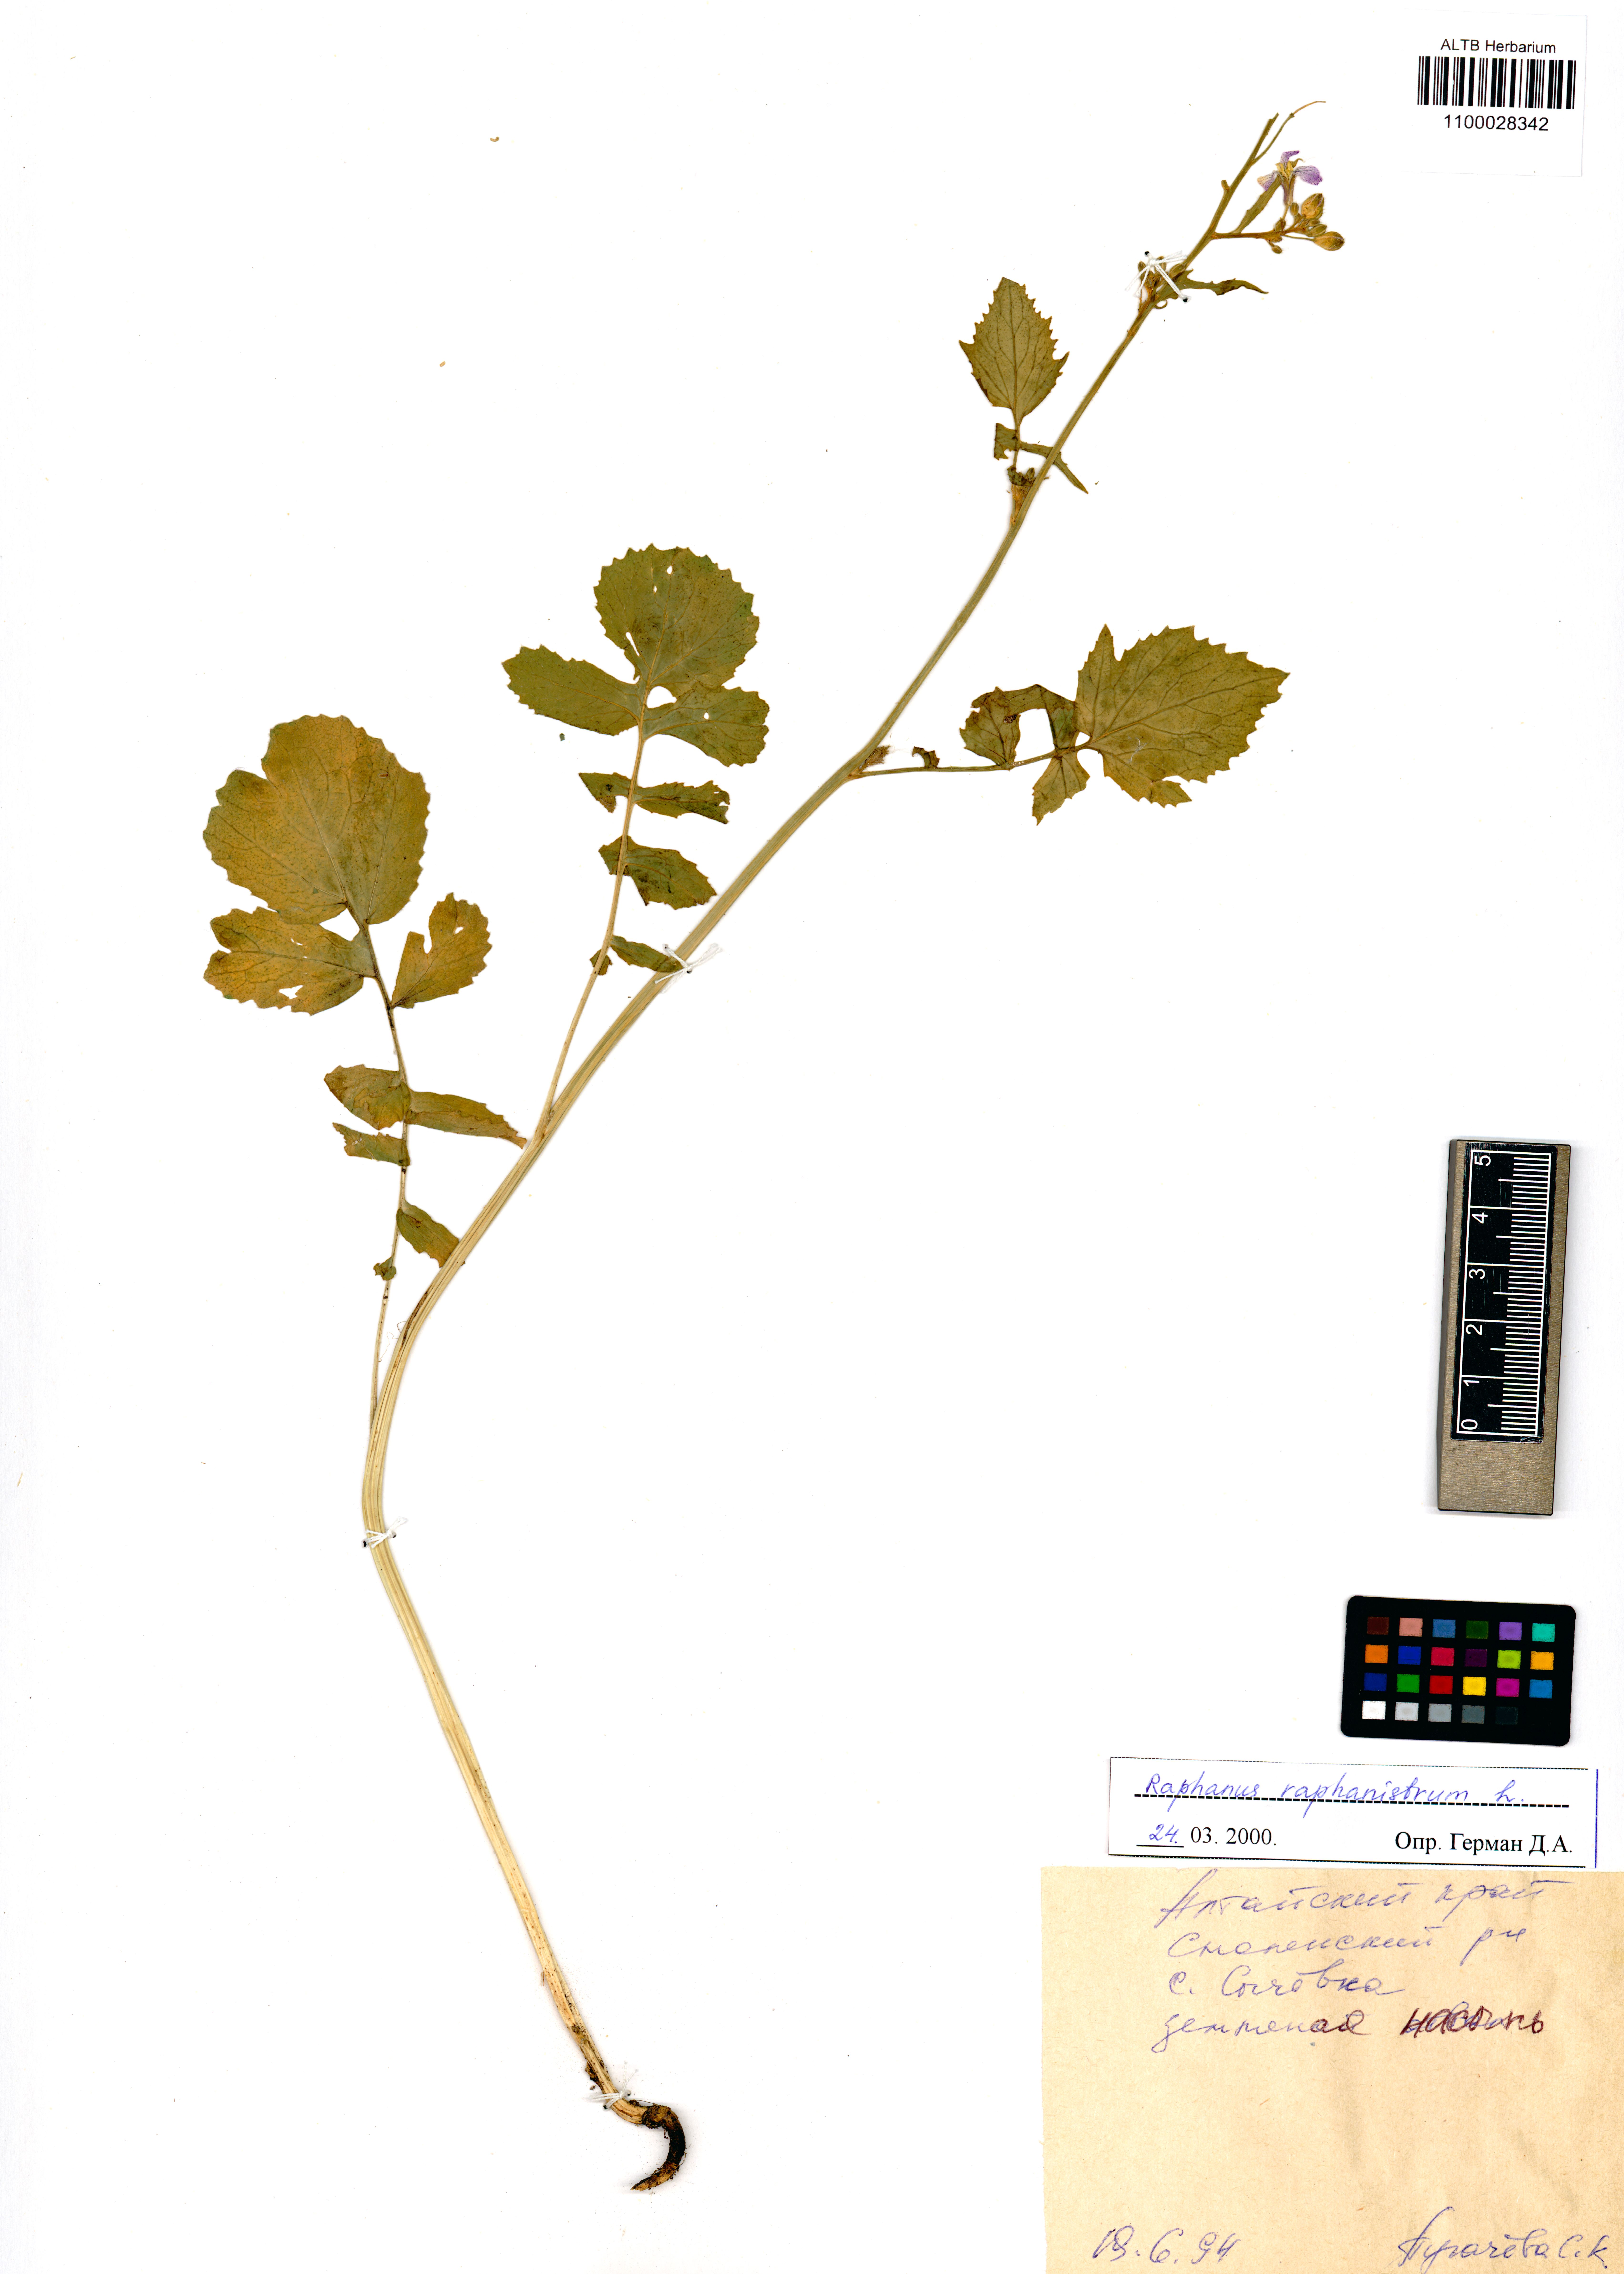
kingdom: Plantae
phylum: Tracheophyta
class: Magnoliopsida
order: Brassicales
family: Brassicaceae
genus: Raphanus
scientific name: Raphanus raphanistrum
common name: Wild radish
